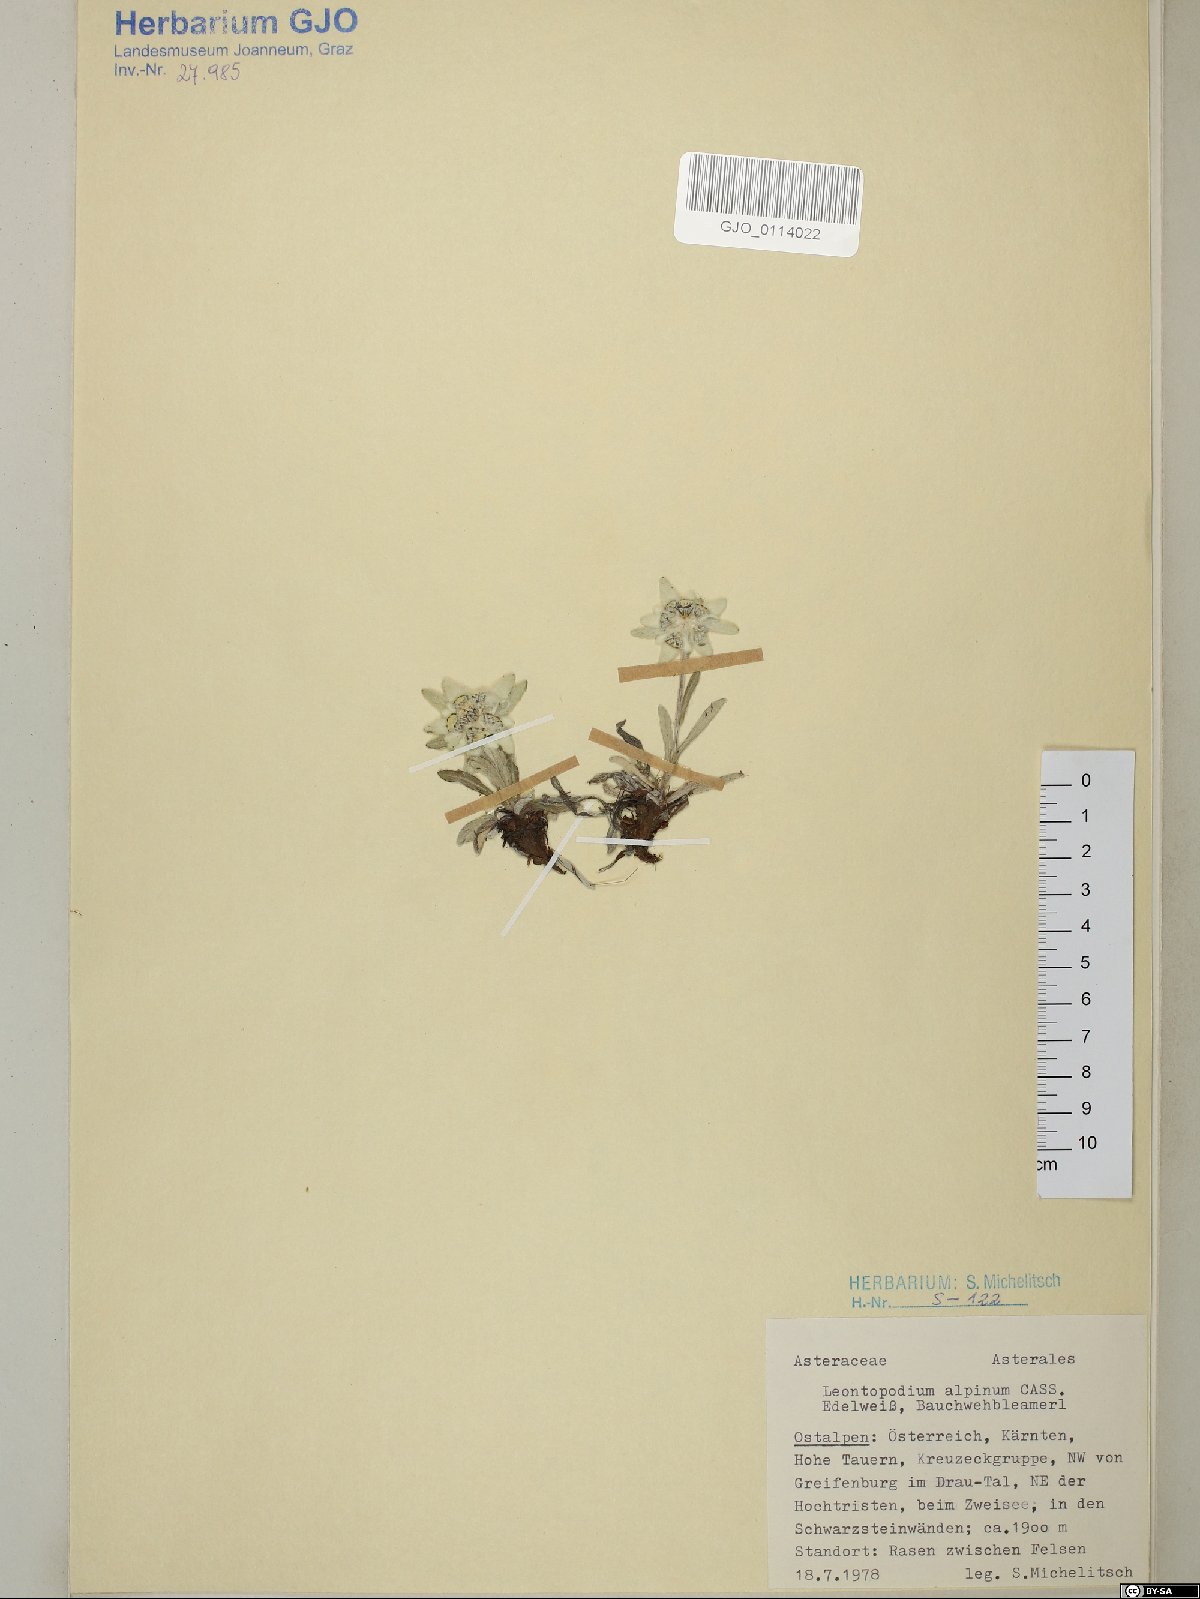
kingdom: Plantae
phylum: Tracheophyta
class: Magnoliopsida
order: Asterales
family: Asteraceae
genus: Leontopodium
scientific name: Leontopodium nivale
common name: Edelweiss
